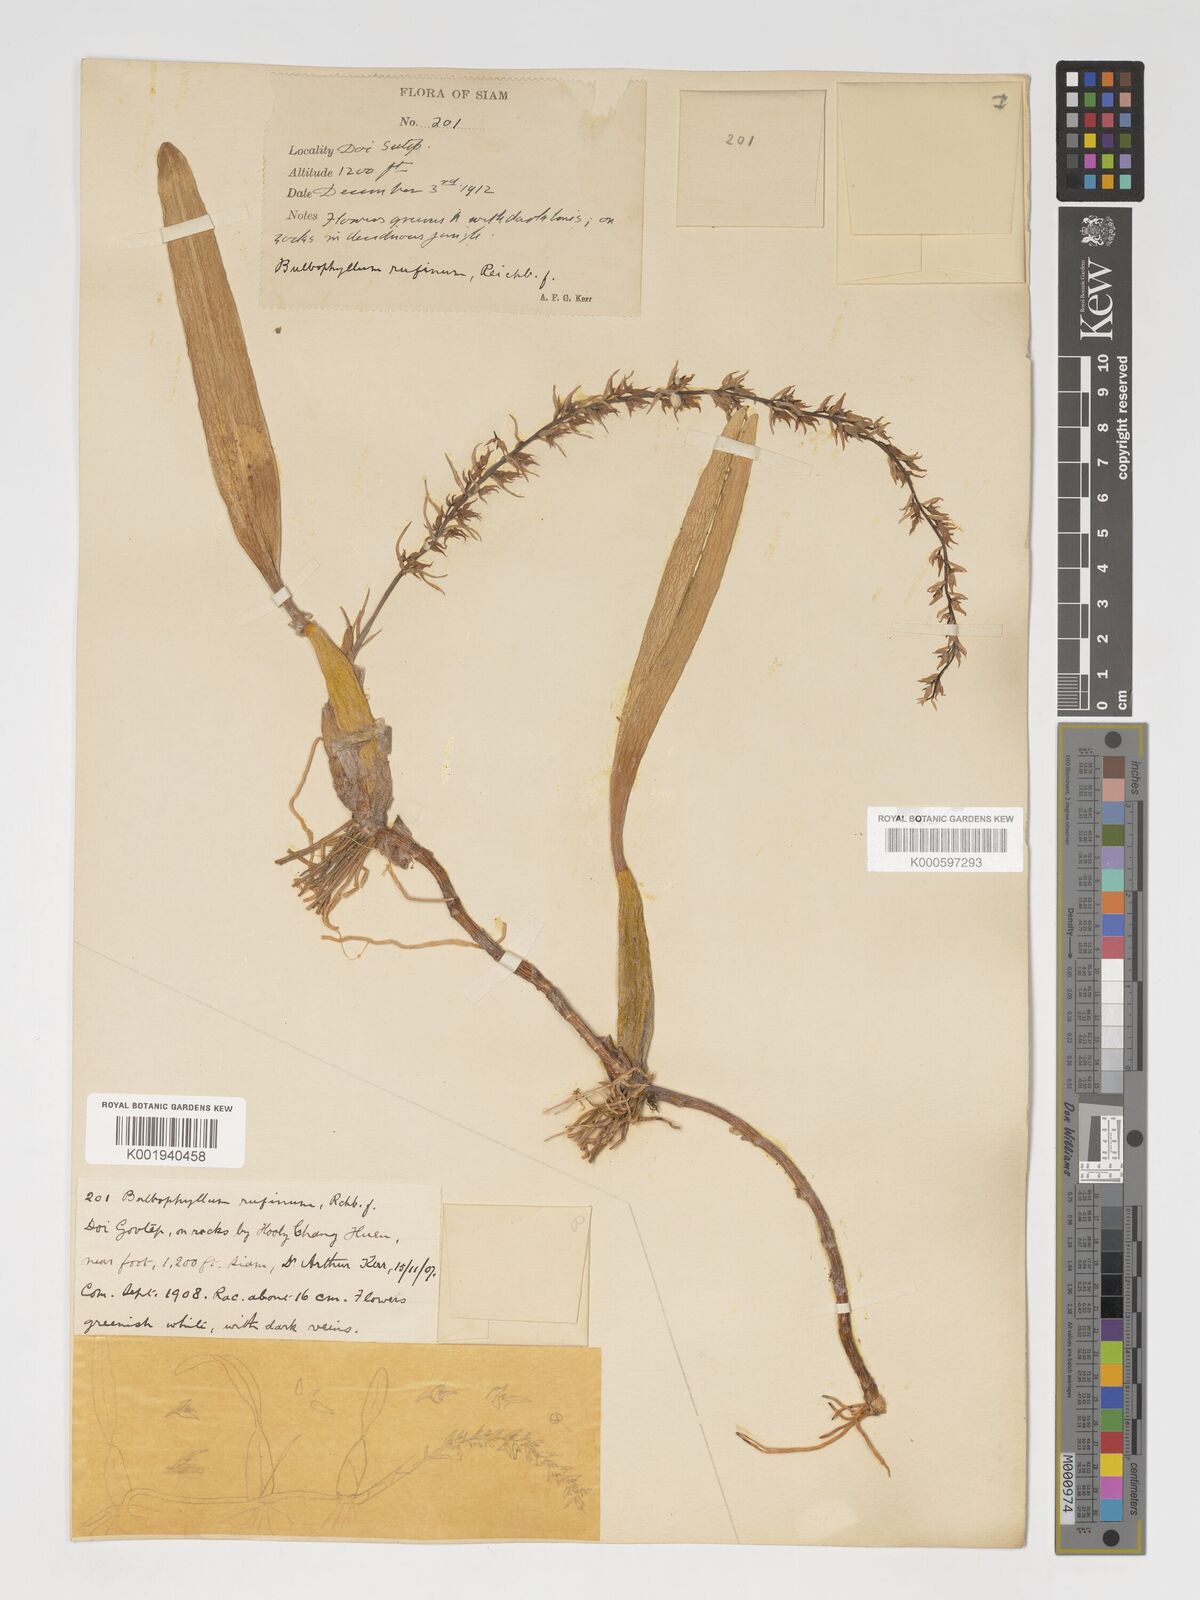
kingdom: Plantae
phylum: Tracheophyta
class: Liliopsida
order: Asparagales
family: Orchidaceae
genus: Bulbophyllum
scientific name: Bulbophyllum rufinum
